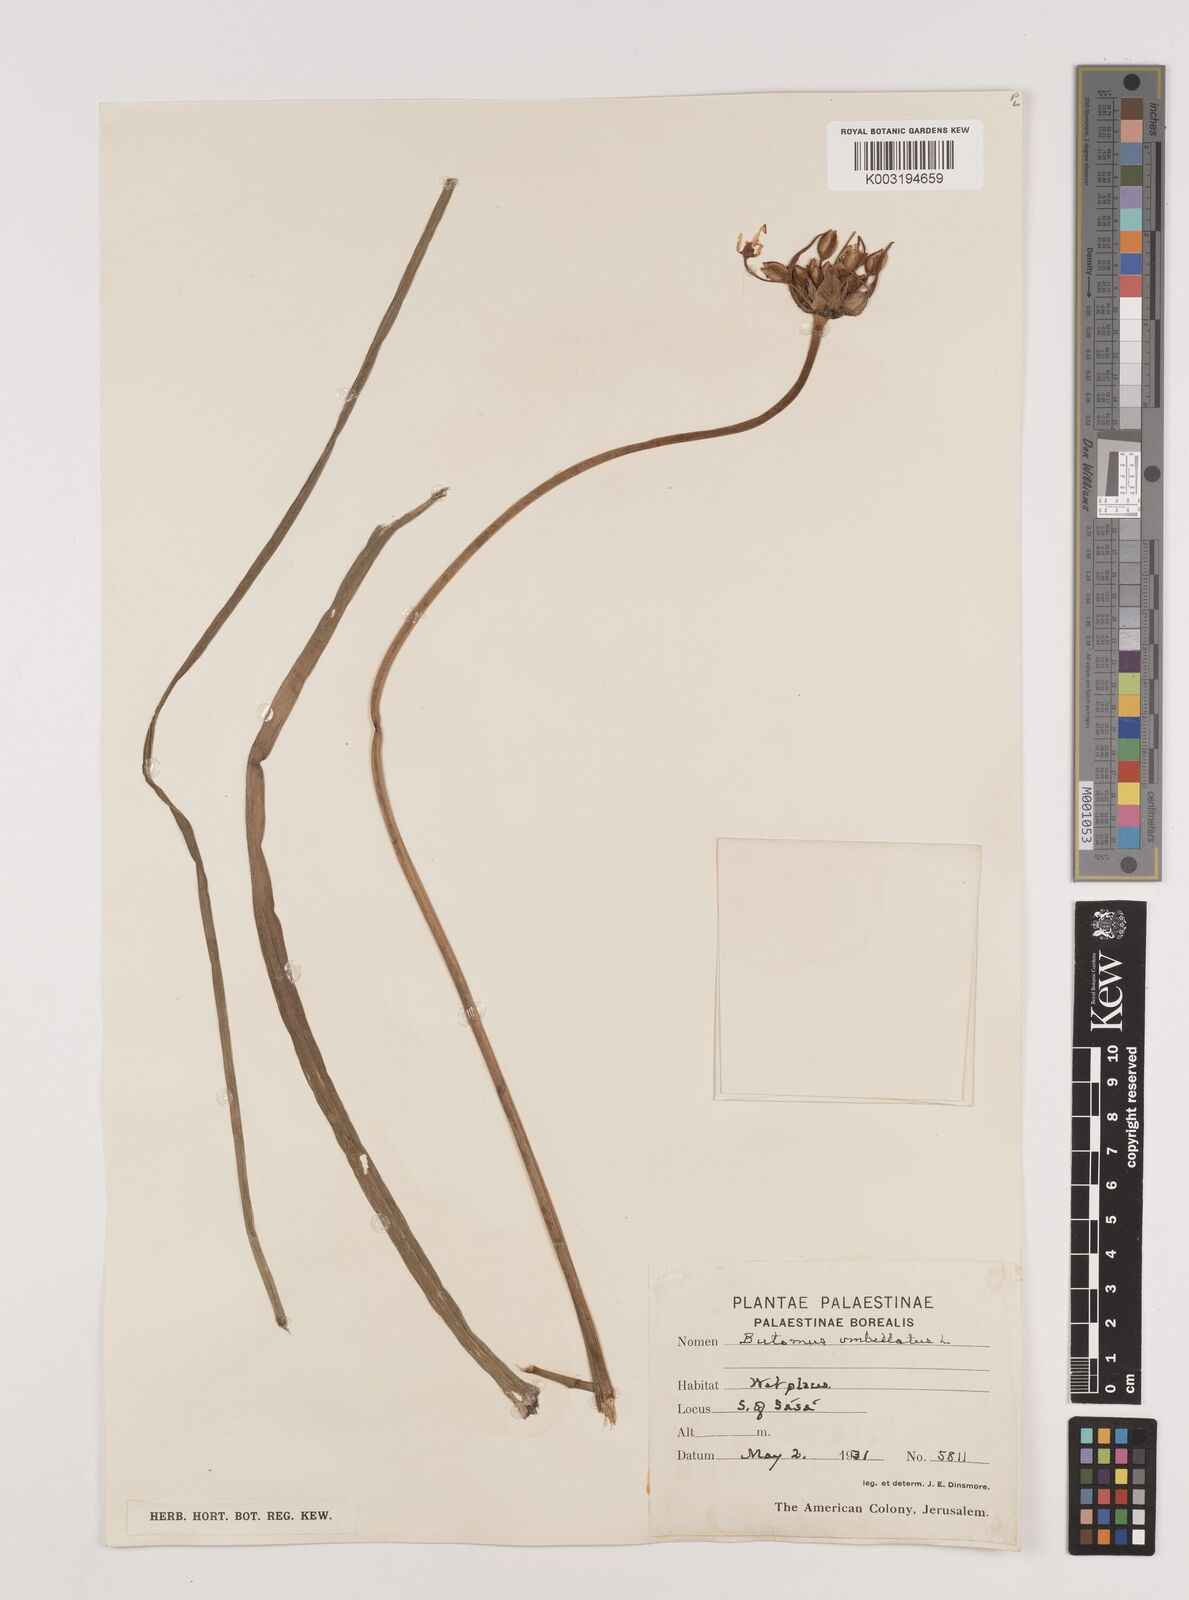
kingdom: Plantae
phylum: Tracheophyta
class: Liliopsida
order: Alismatales
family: Butomaceae
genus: Butomus
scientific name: Butomus
